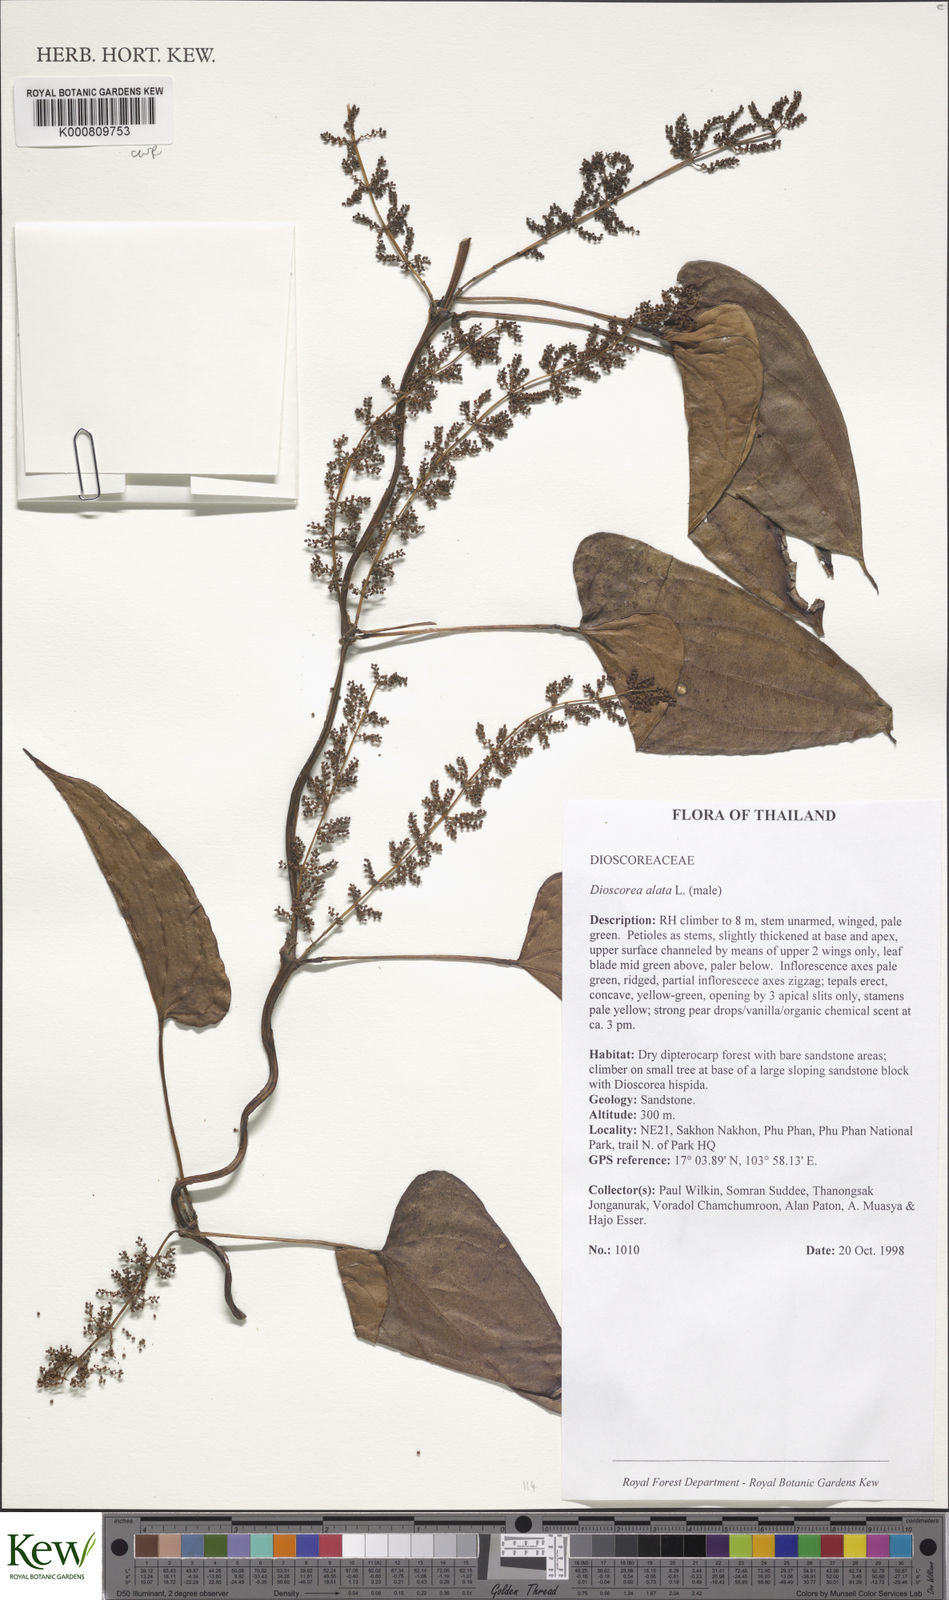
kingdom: Plantae
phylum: Tracheophyta
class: Liliopsida
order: Dioscoreales
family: Dioscoreaceae
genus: Dioscorea
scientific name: Dioscorea alata
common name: Water yam
